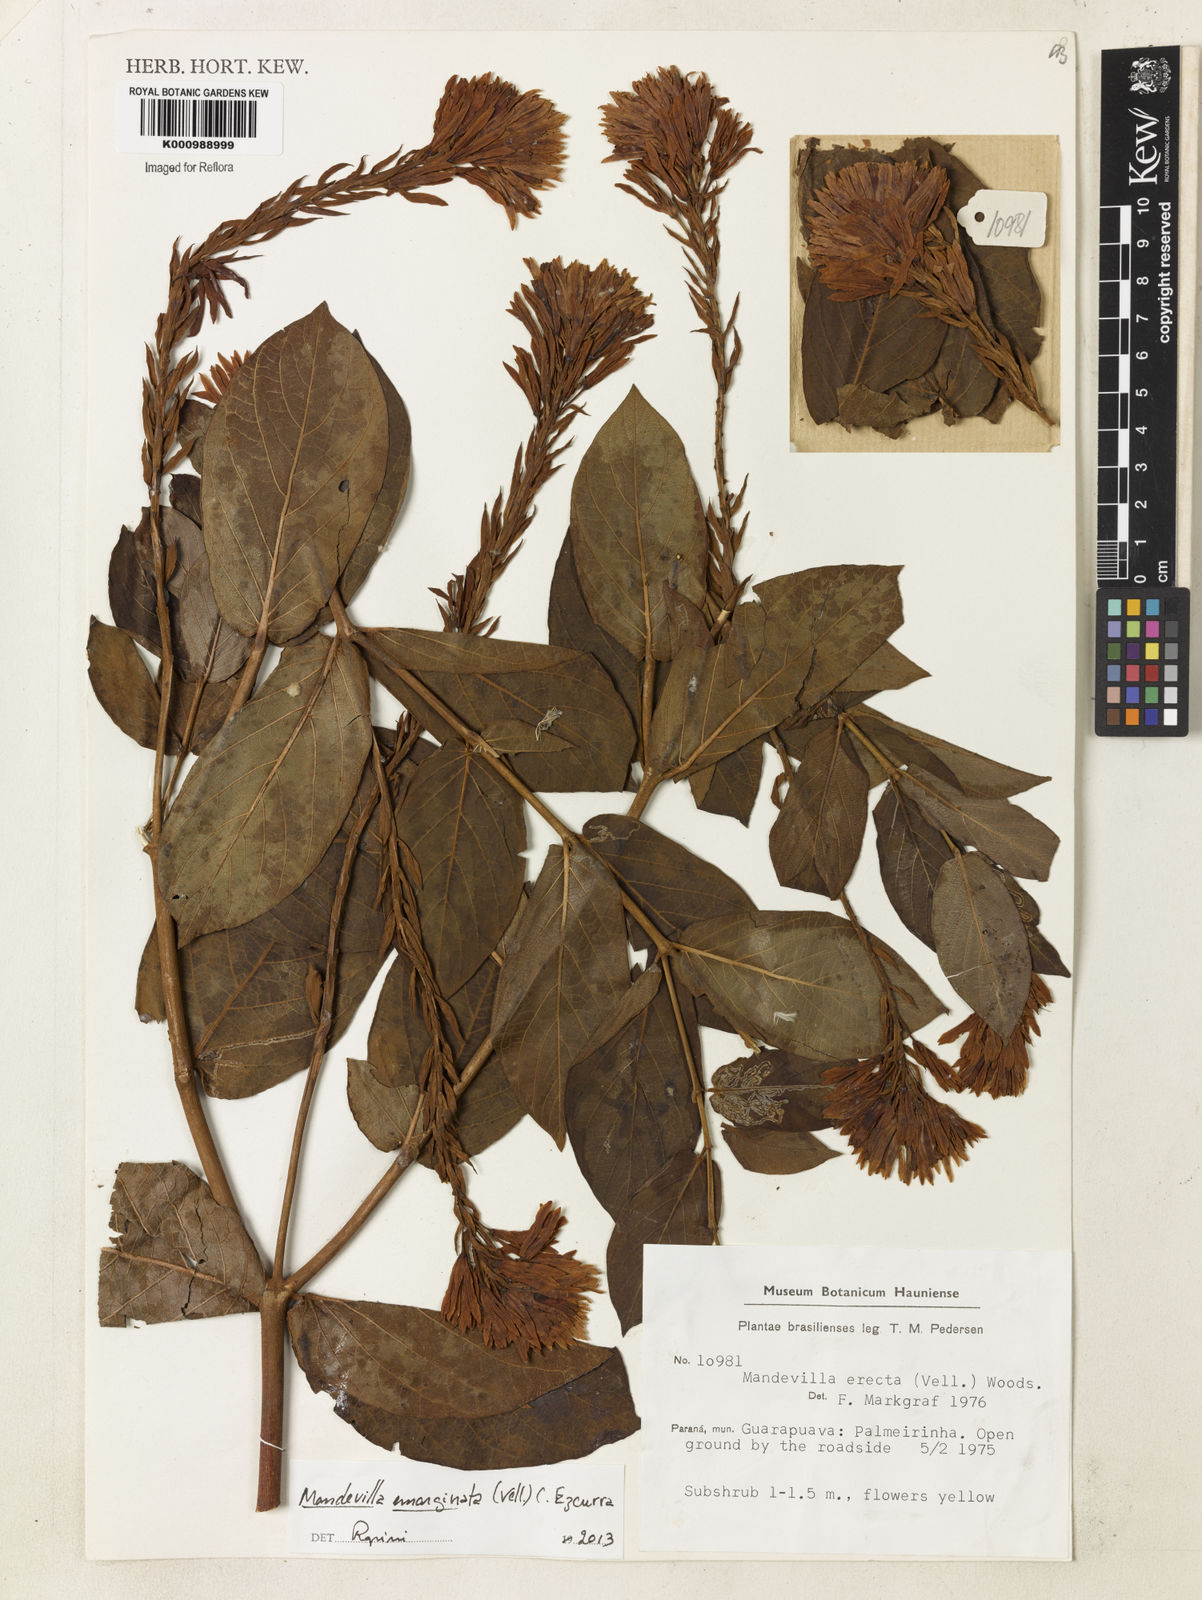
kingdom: Plantae
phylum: Tracheophyta
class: Magnoliopsida
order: Gentianales
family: Apocynaceae
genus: Mandevilla
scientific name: Mandevilla emarginata
